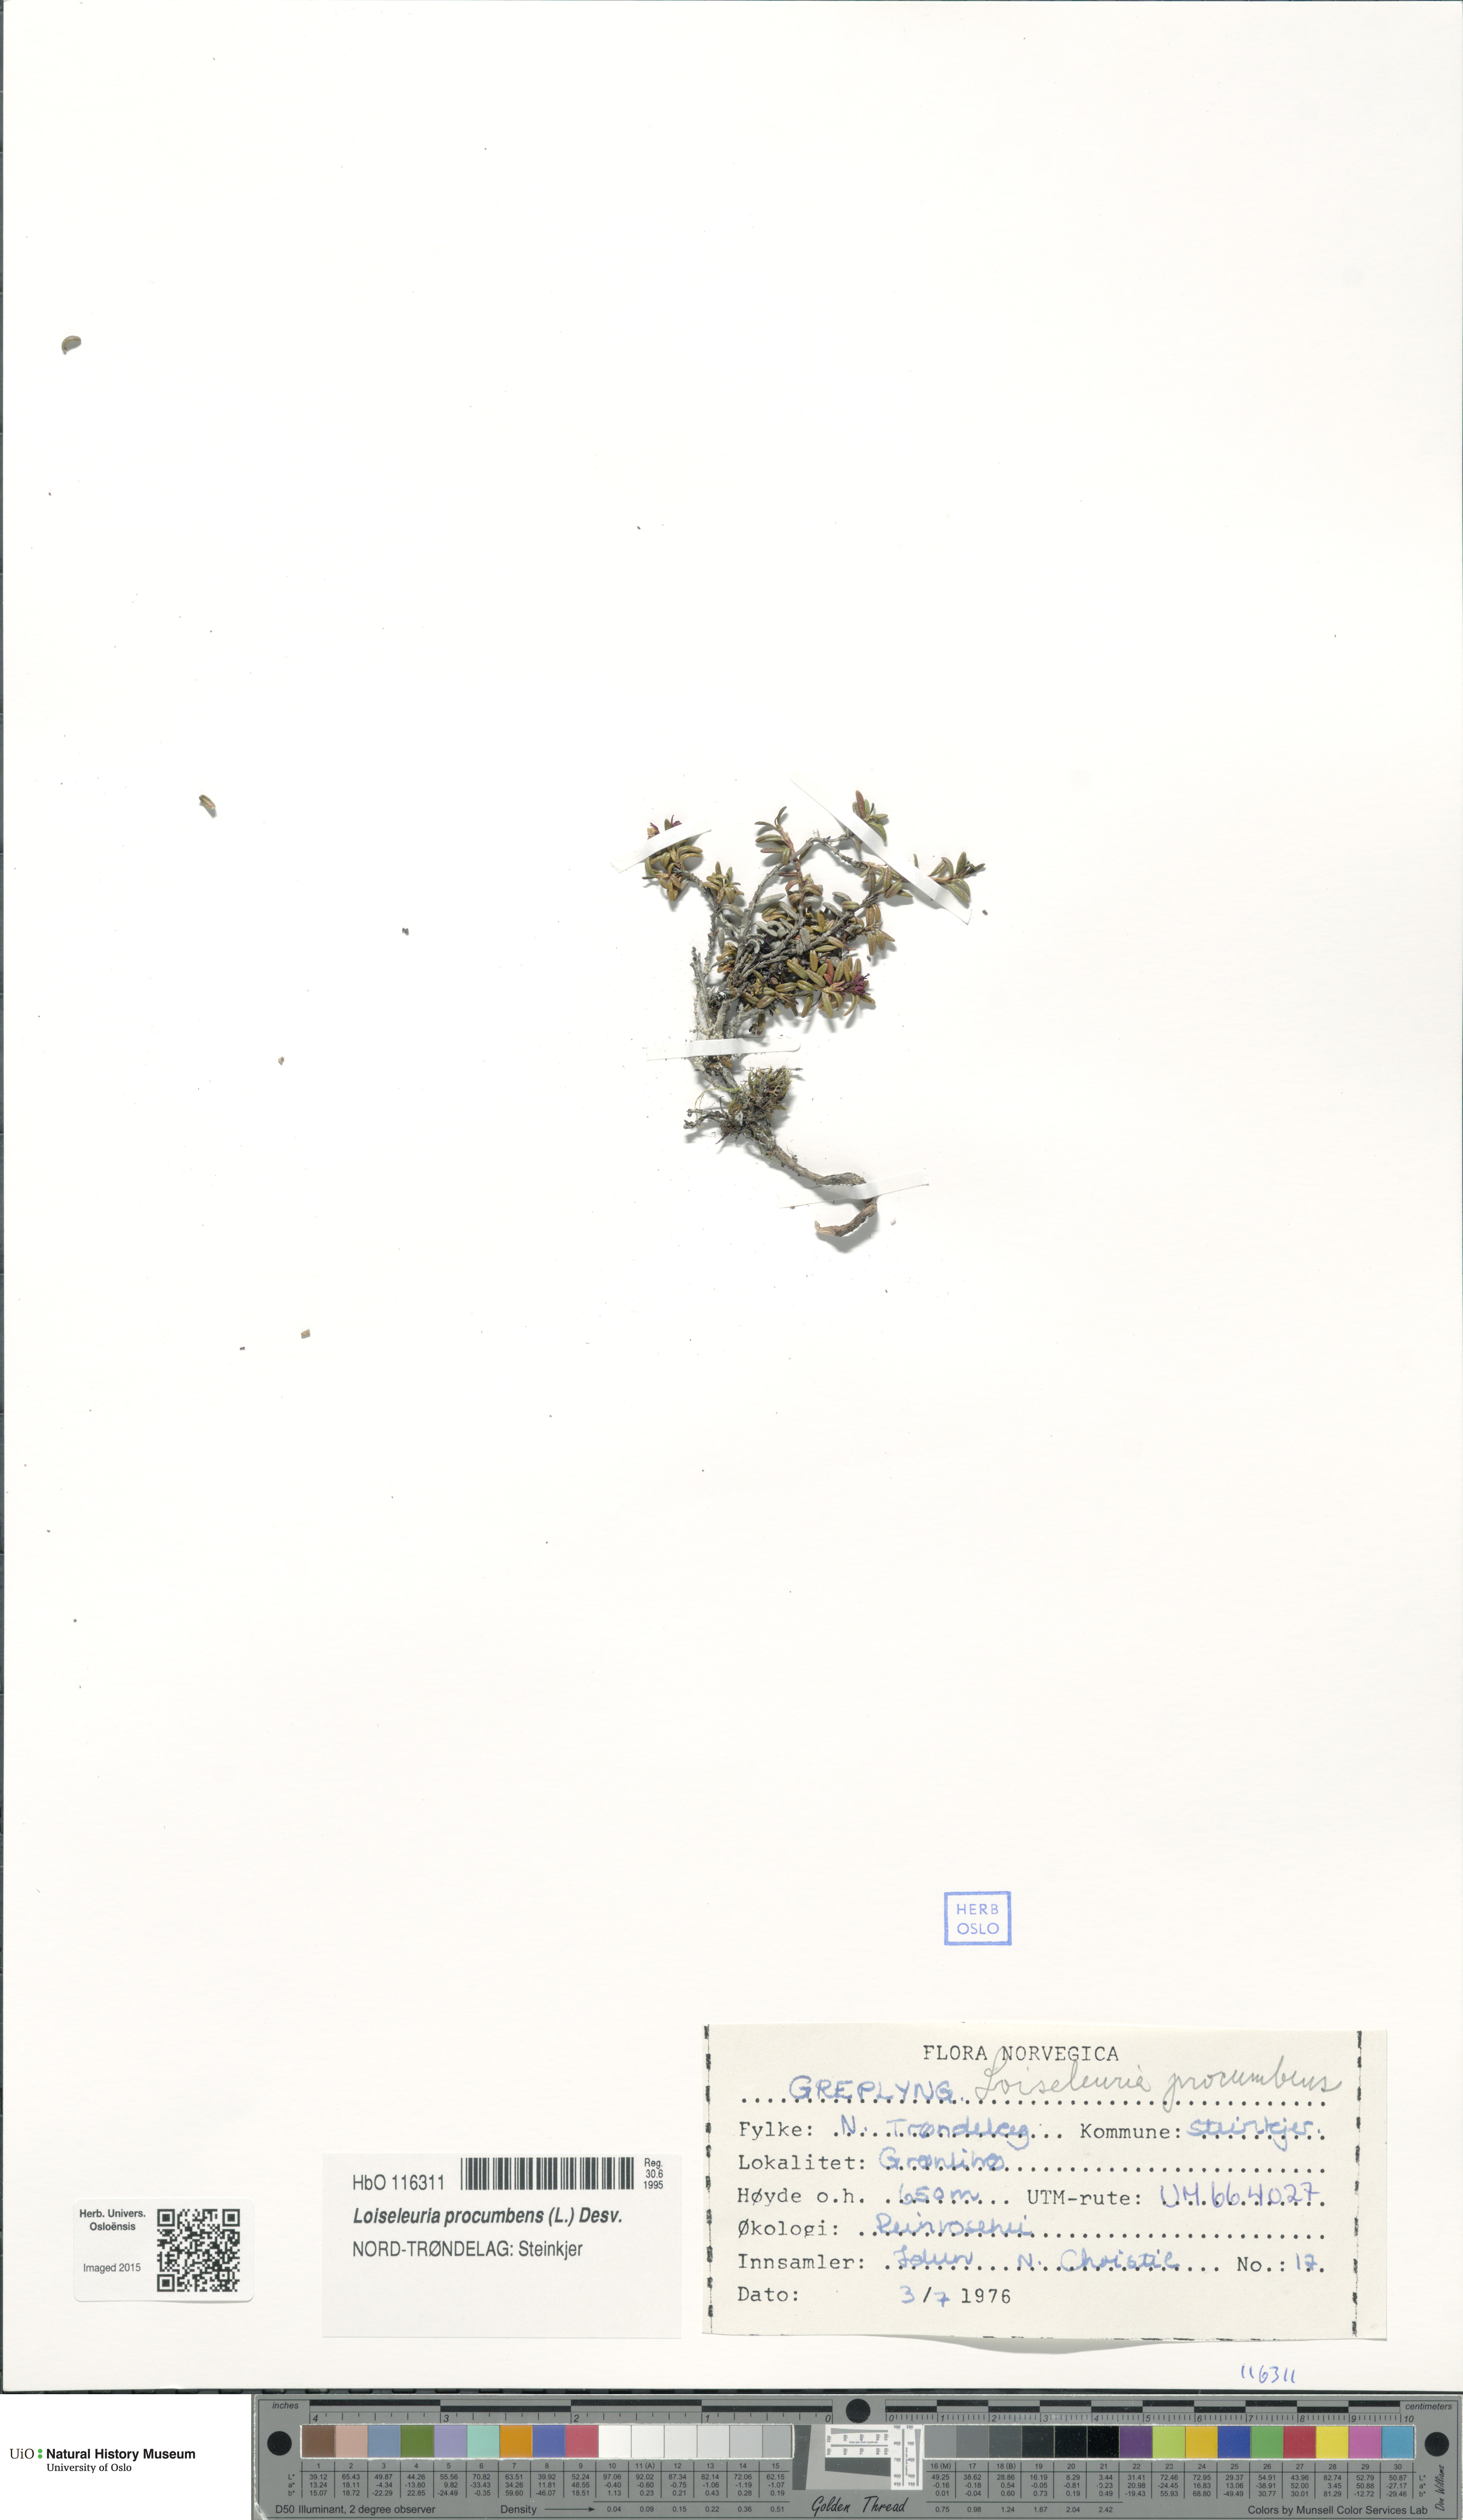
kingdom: Plantae
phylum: Tracheophyta
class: Magnoliopsida
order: Ericales
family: Ericaceae
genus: Kalmia
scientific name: Kalmia procumbens
